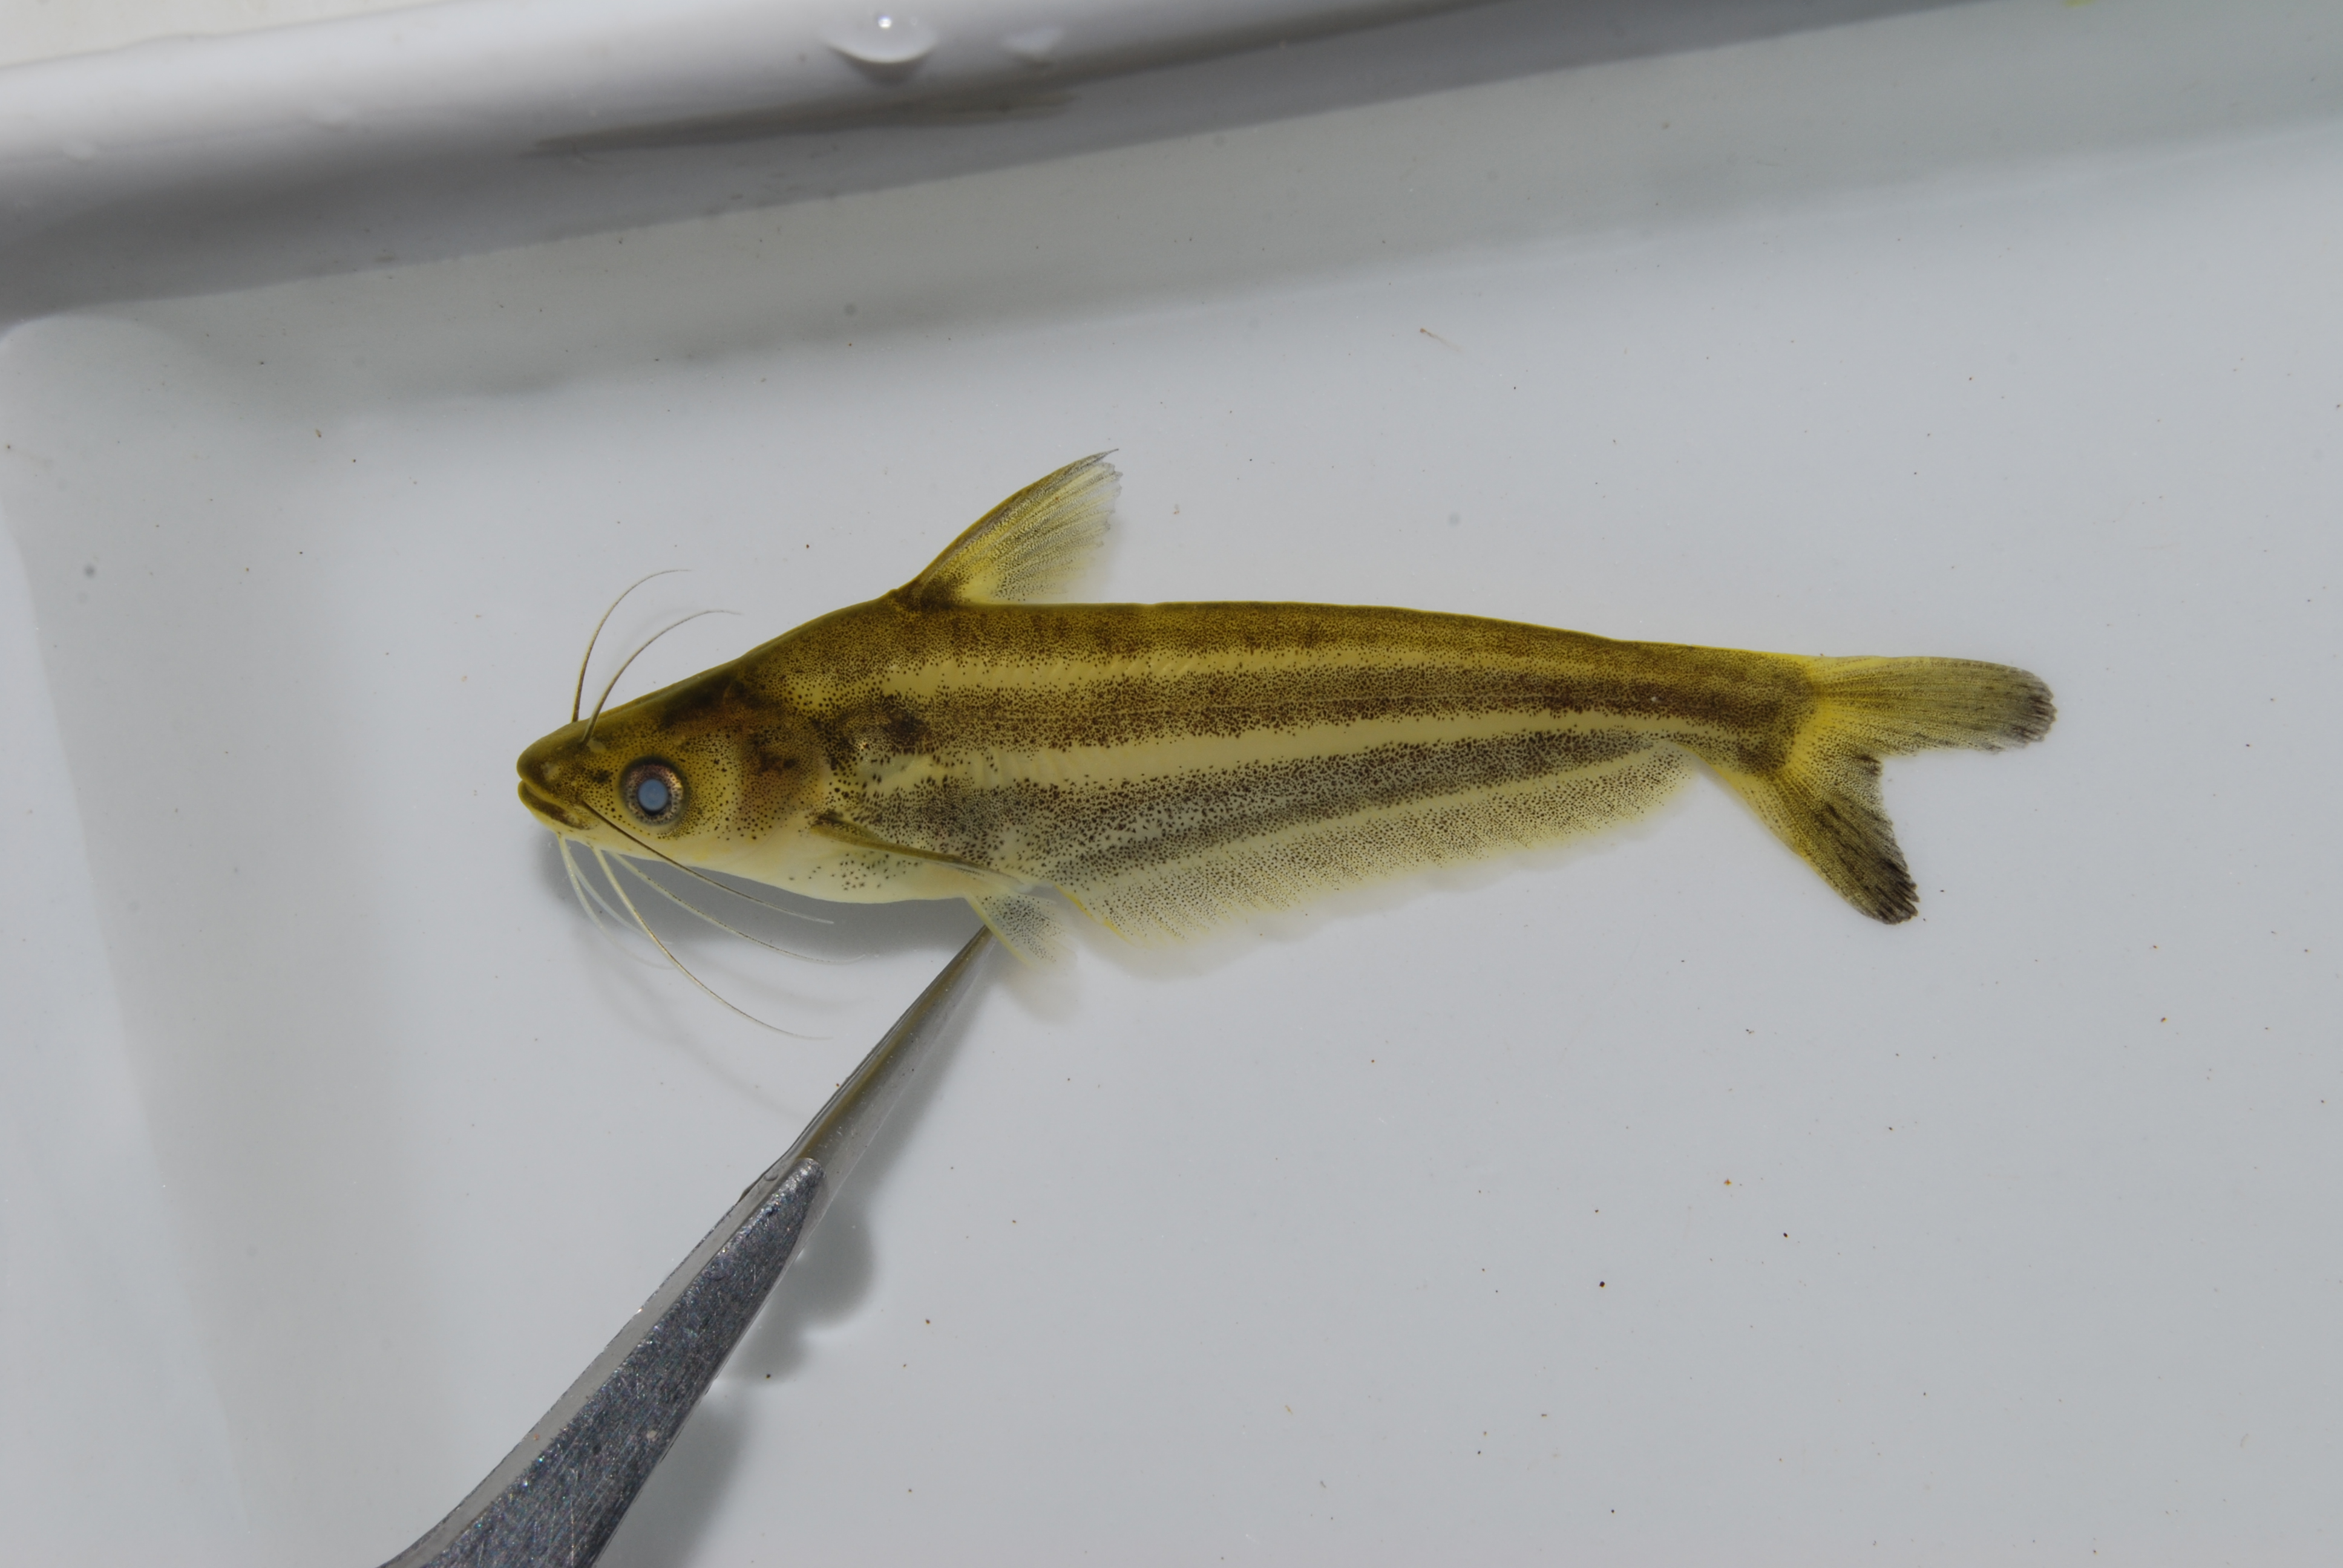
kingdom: Animalia
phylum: Chordata
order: Siluriformes
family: Schilbeidae
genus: Schilbe
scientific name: Schilbe intermedius
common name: Silver catfish
